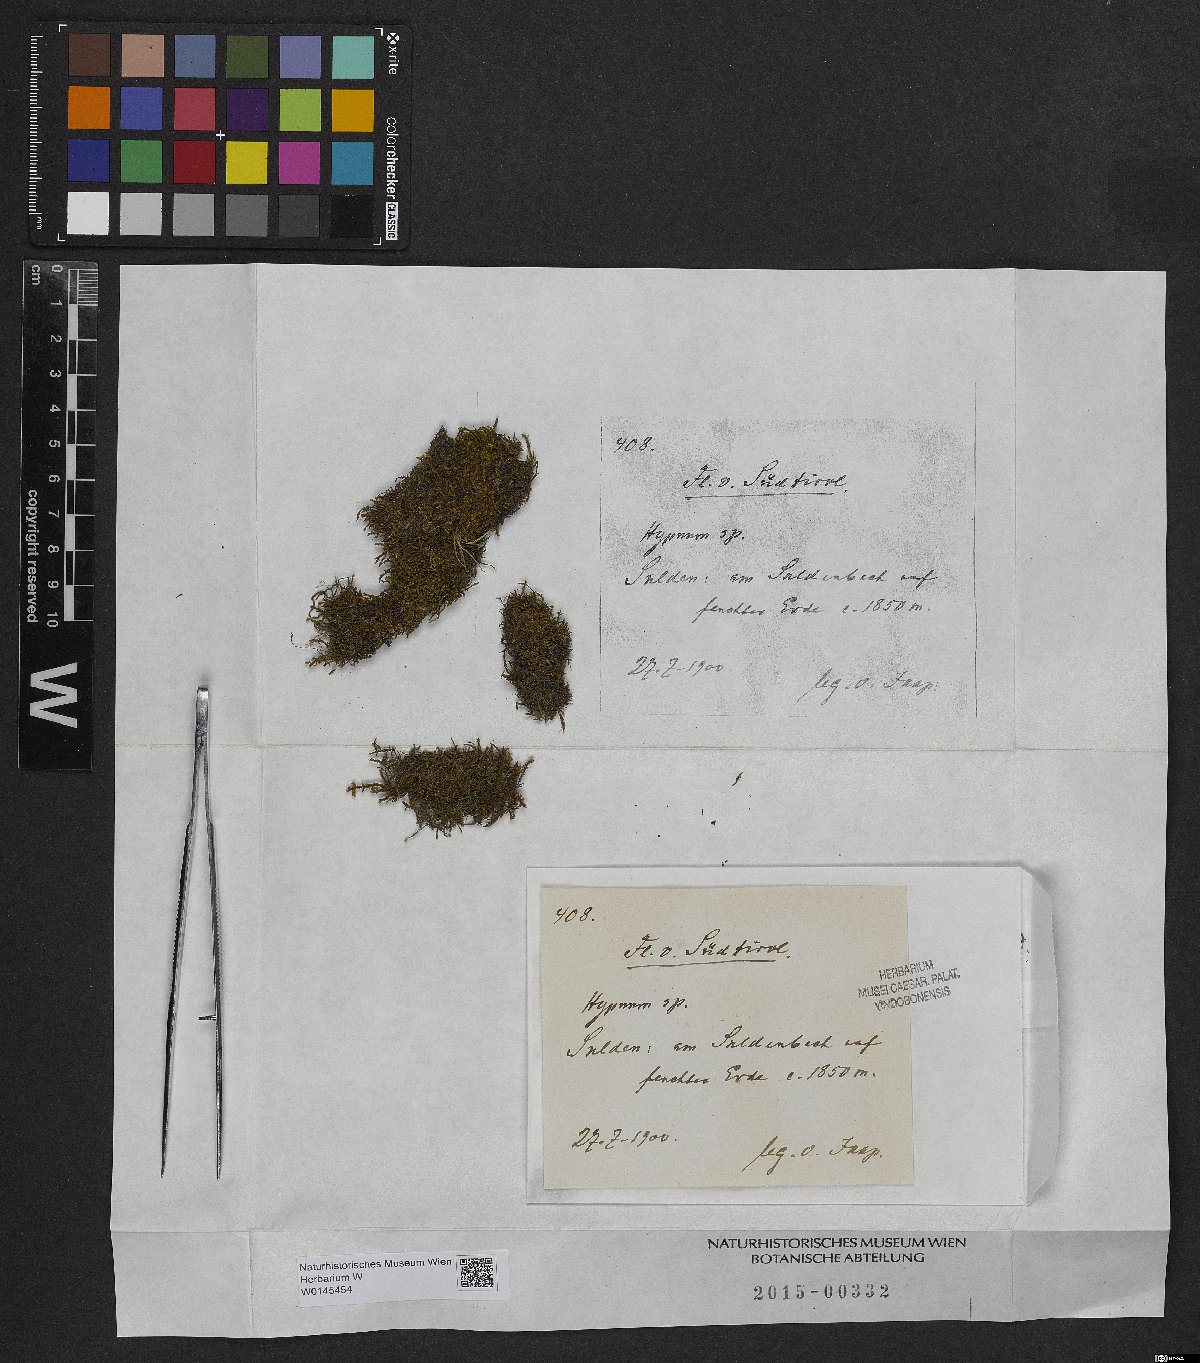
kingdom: Plantae
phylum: Bryophyta
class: Bryopsida
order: Hypnales
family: Hypnaceae
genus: Hypnum
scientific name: Hypnum
